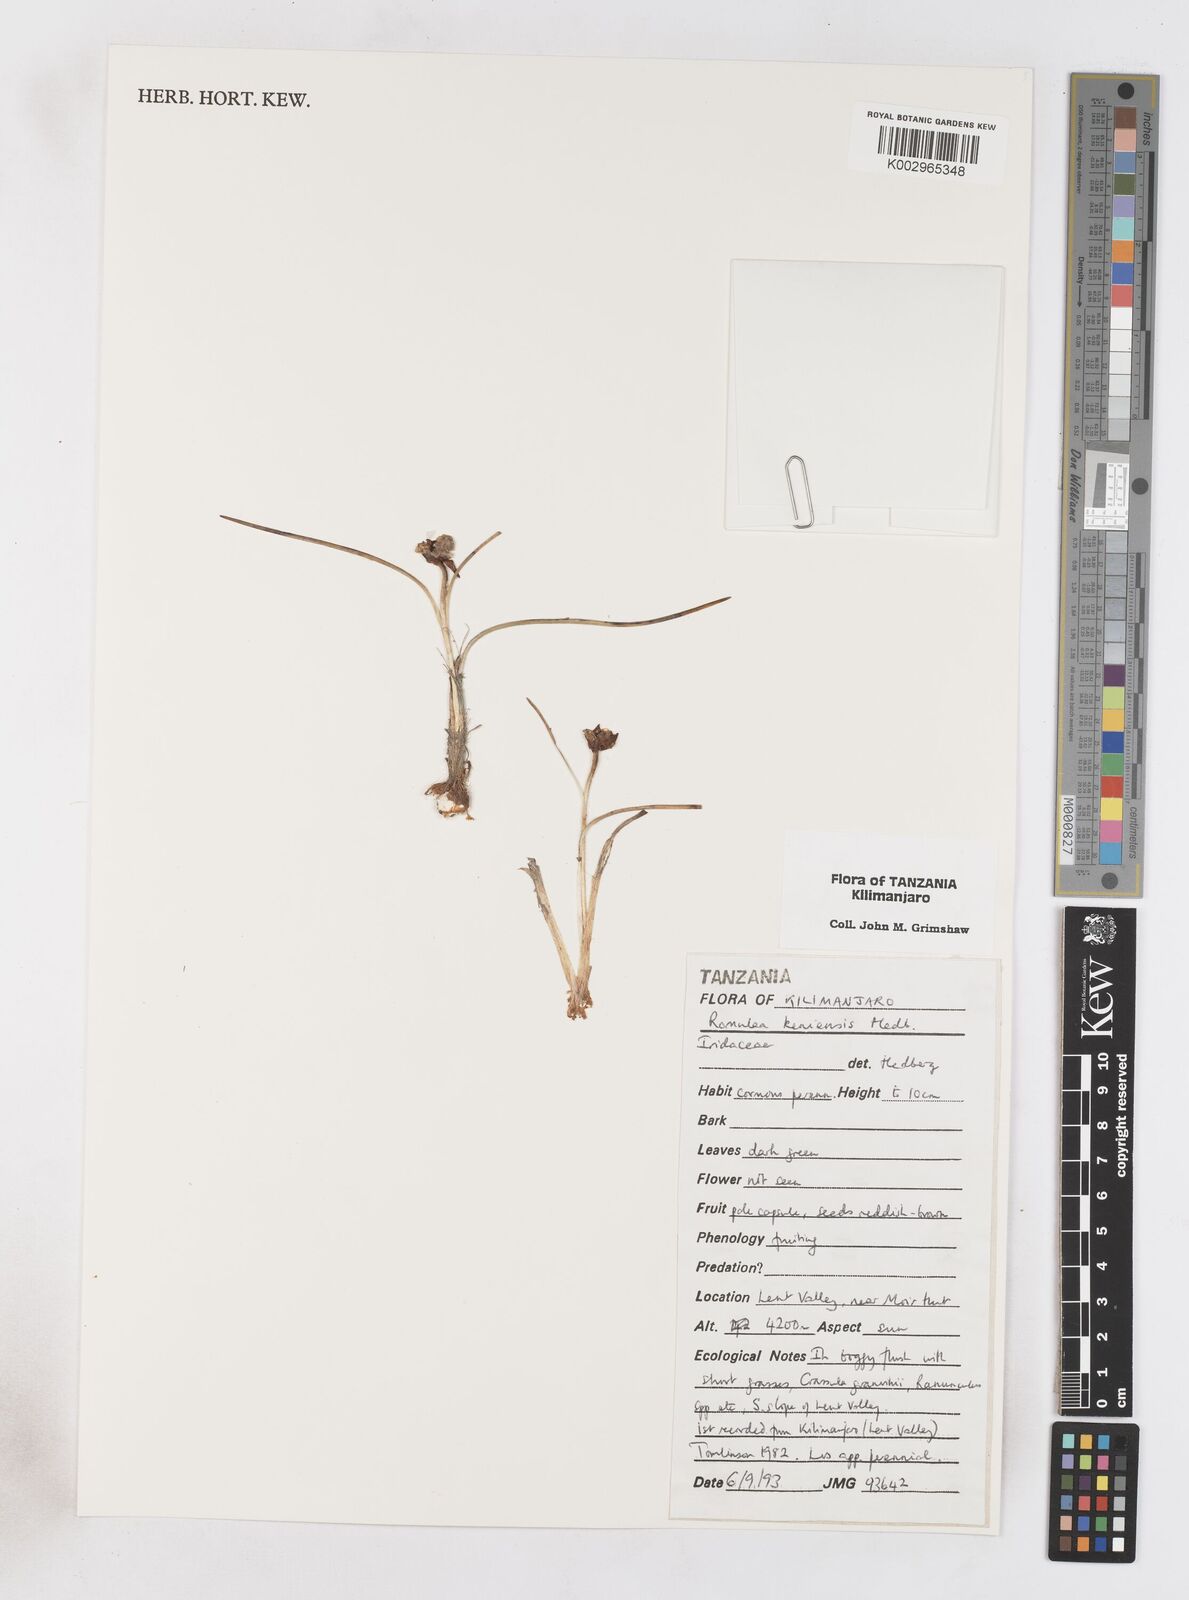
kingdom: Plantae
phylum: Tracheophyta
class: Liliopsida
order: Asparagales
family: Iridaceae
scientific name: Iridaceae
